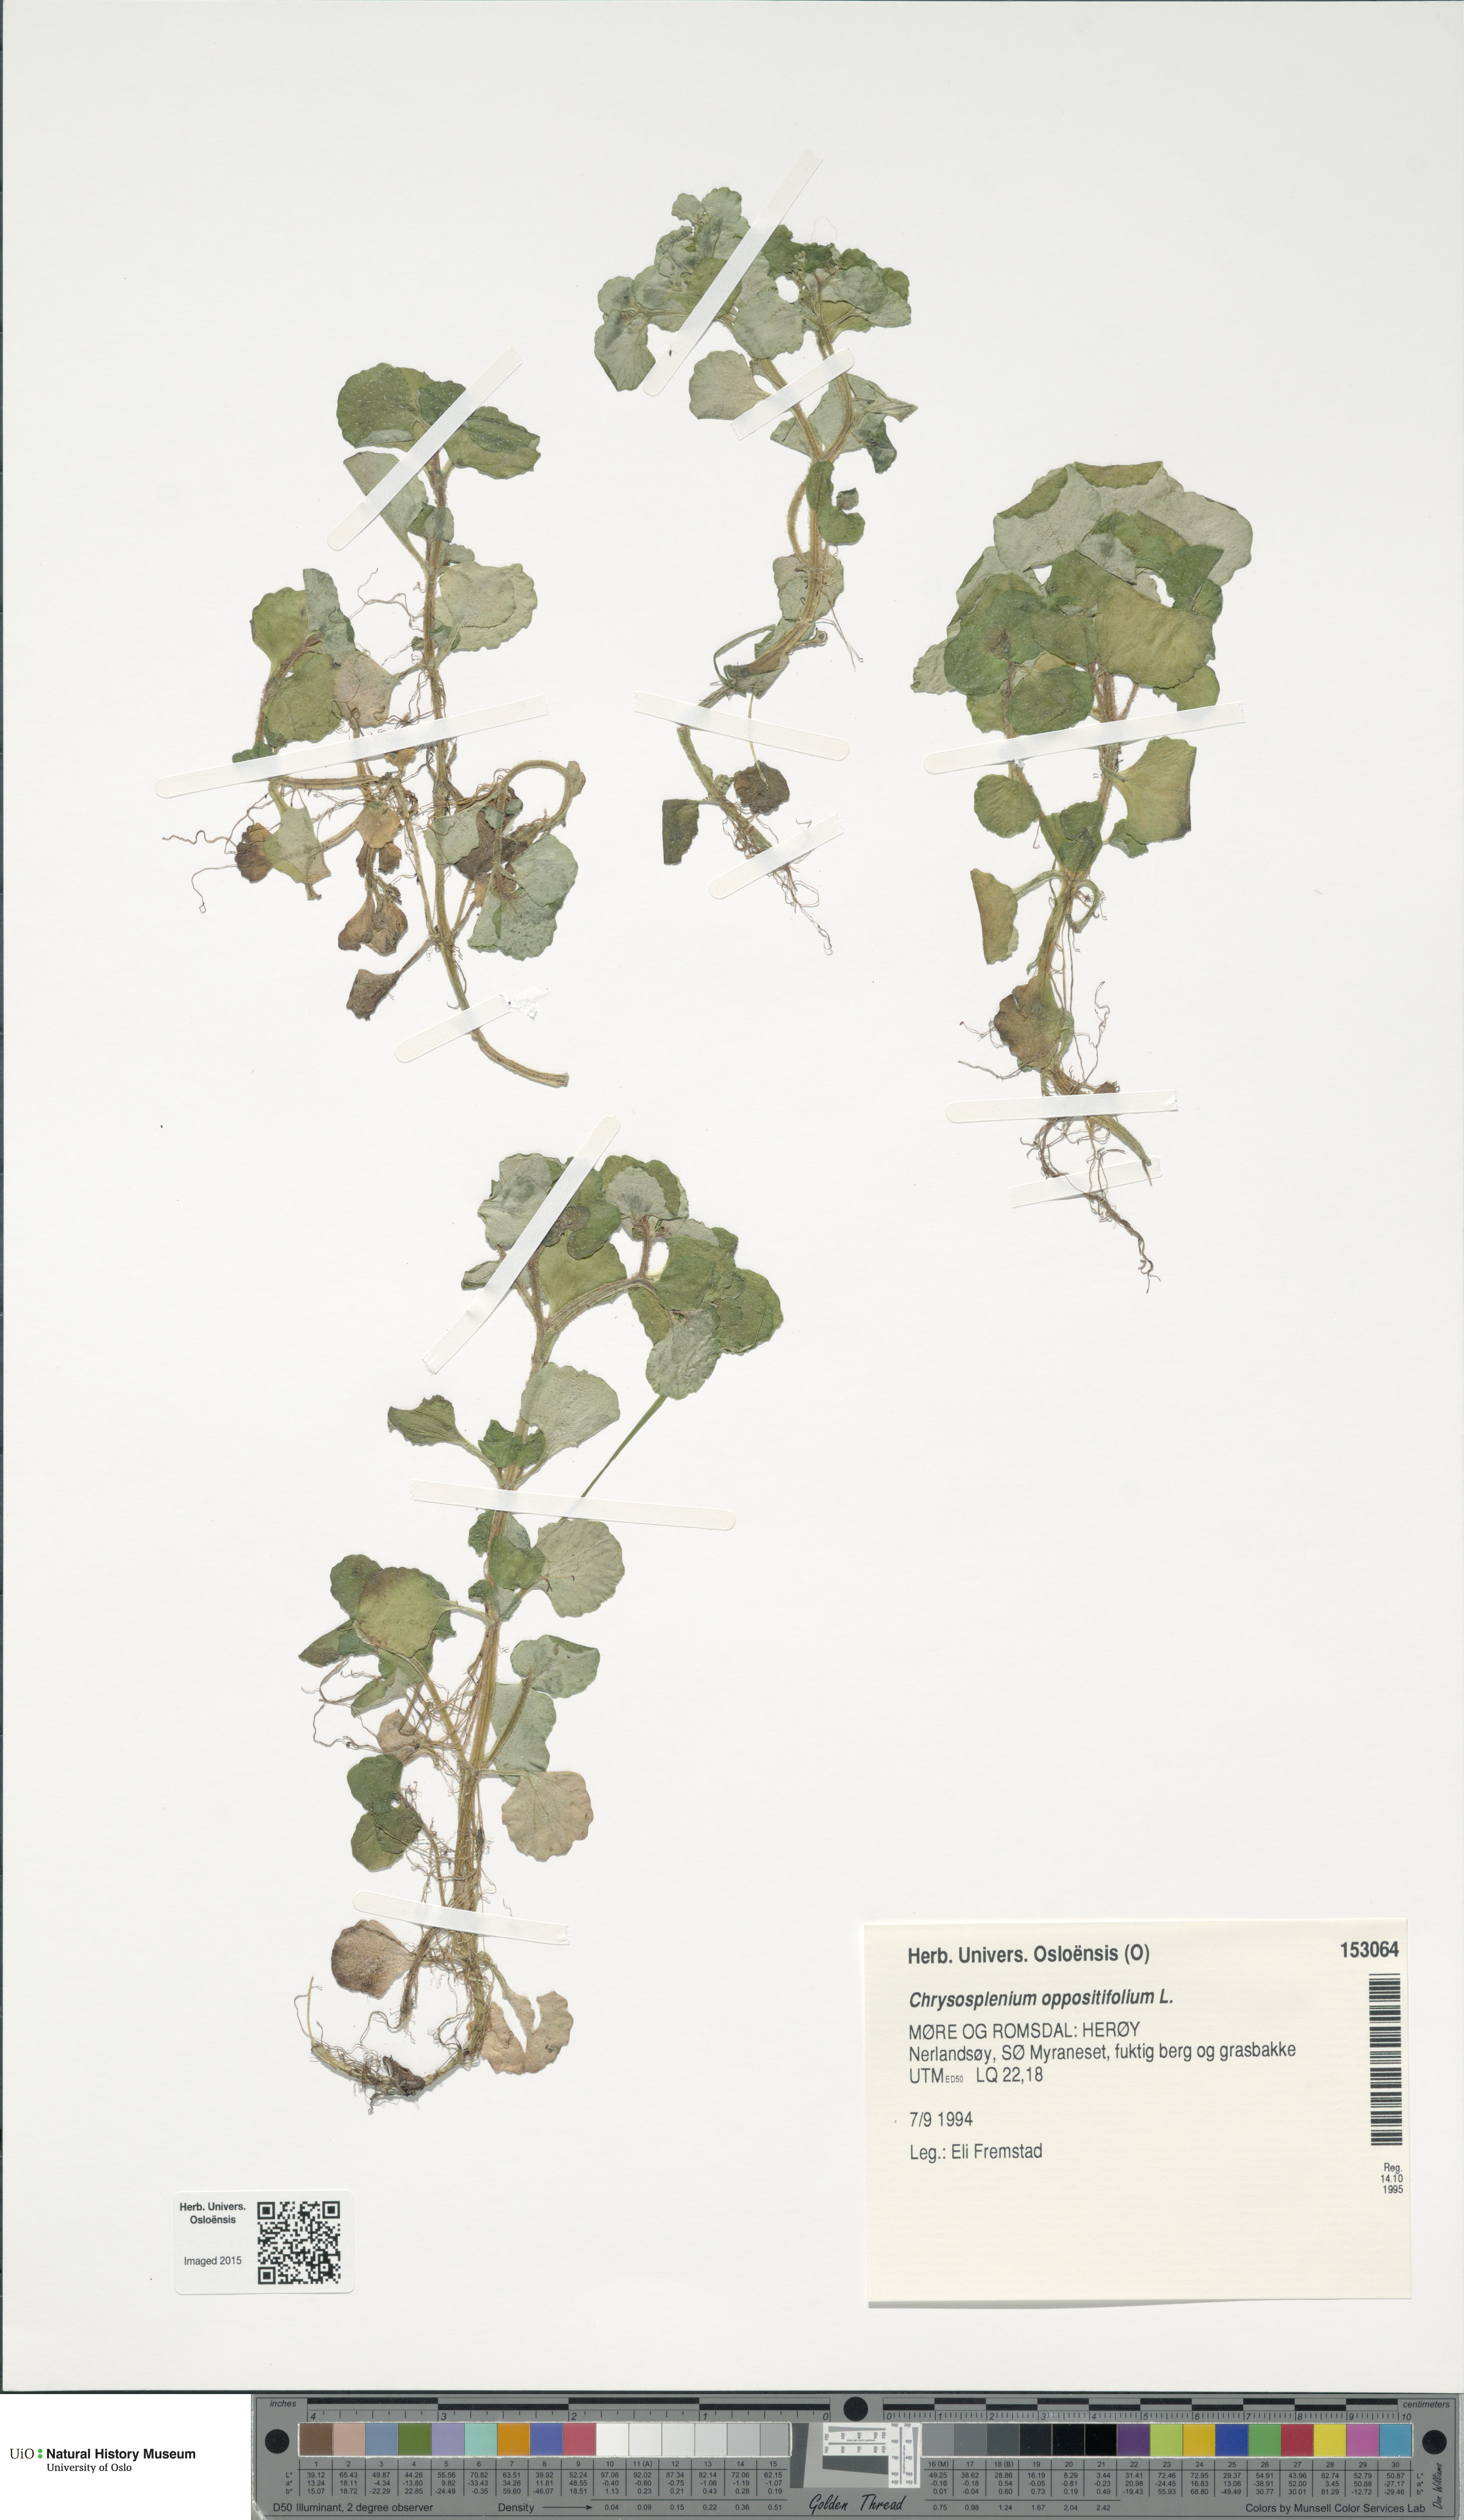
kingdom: Plantae
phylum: Tracheophyta
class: Magnoliopsida
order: Saxifragales
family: Saxifragaceae
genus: Chrysosplenium
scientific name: Chrysosplenium oppositifolium
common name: Opposite-leaved golden-saxifrage
